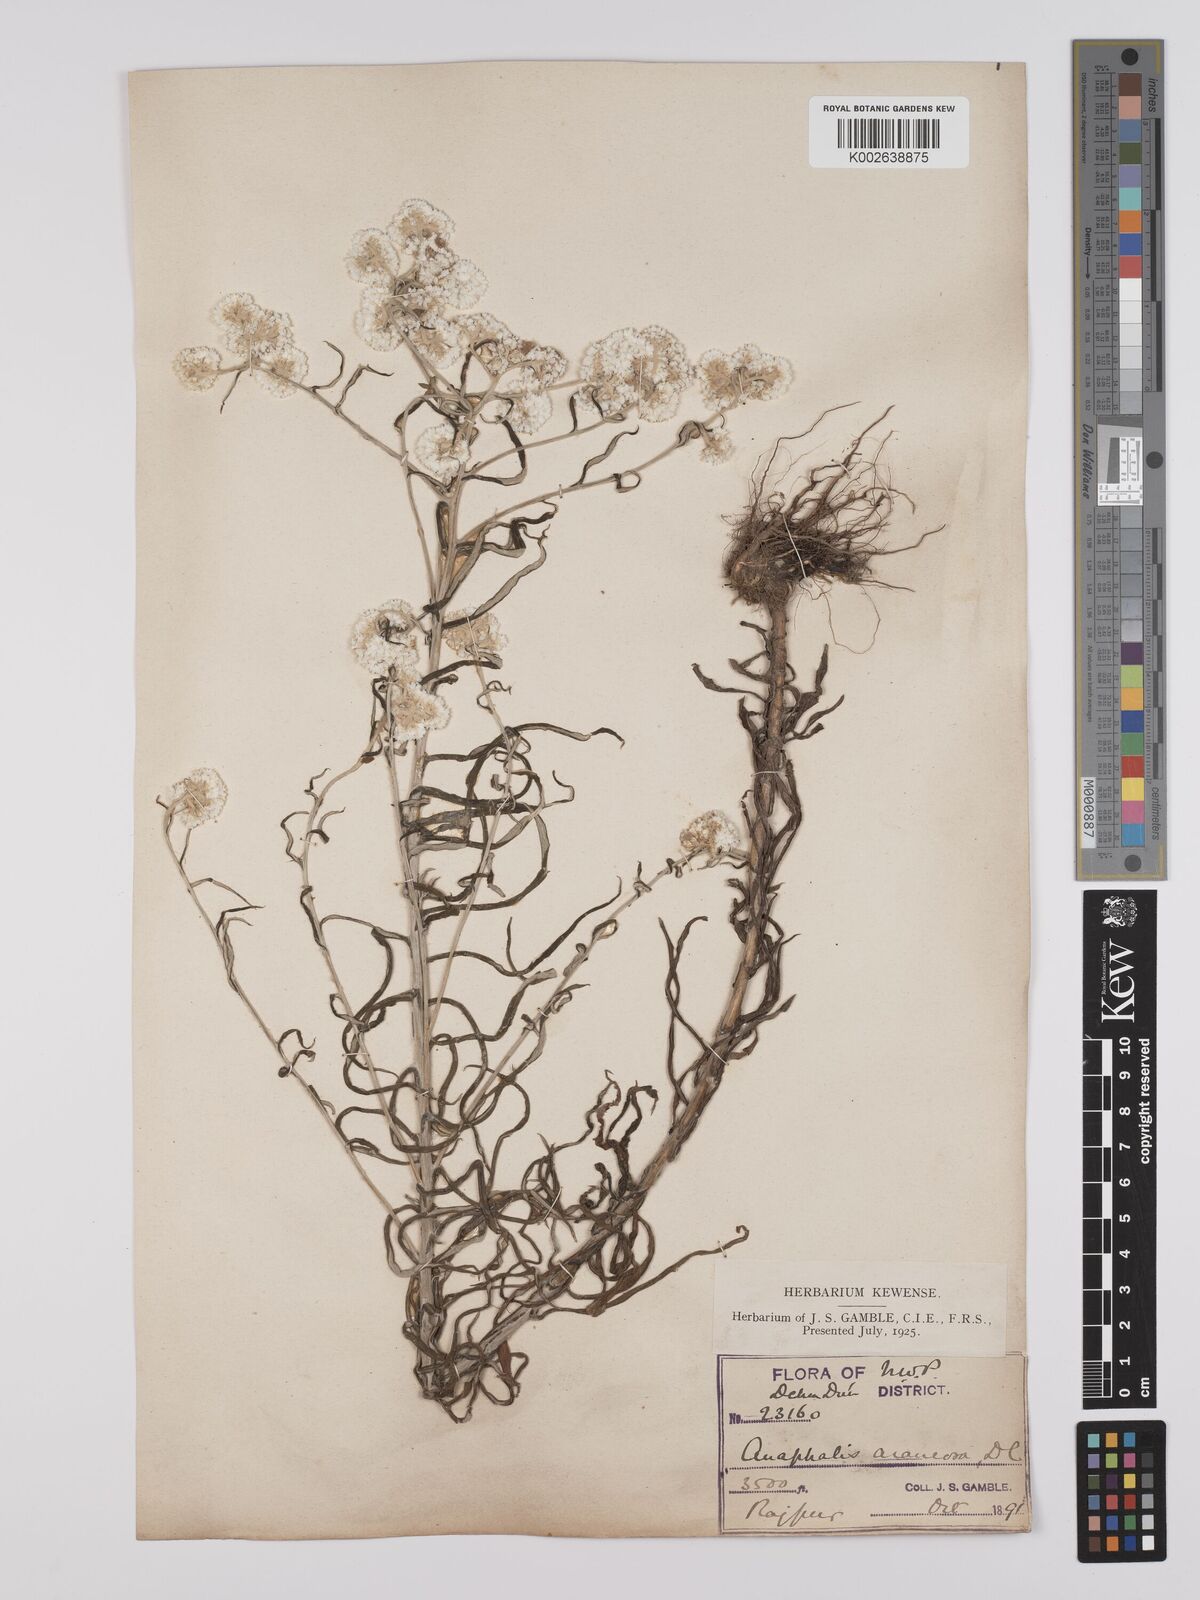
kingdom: Plantae
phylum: Tracheophyta
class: Magnoliopsida
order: Asterales
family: Asteraceae
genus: Anaphalis
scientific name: Anaphalis busua
